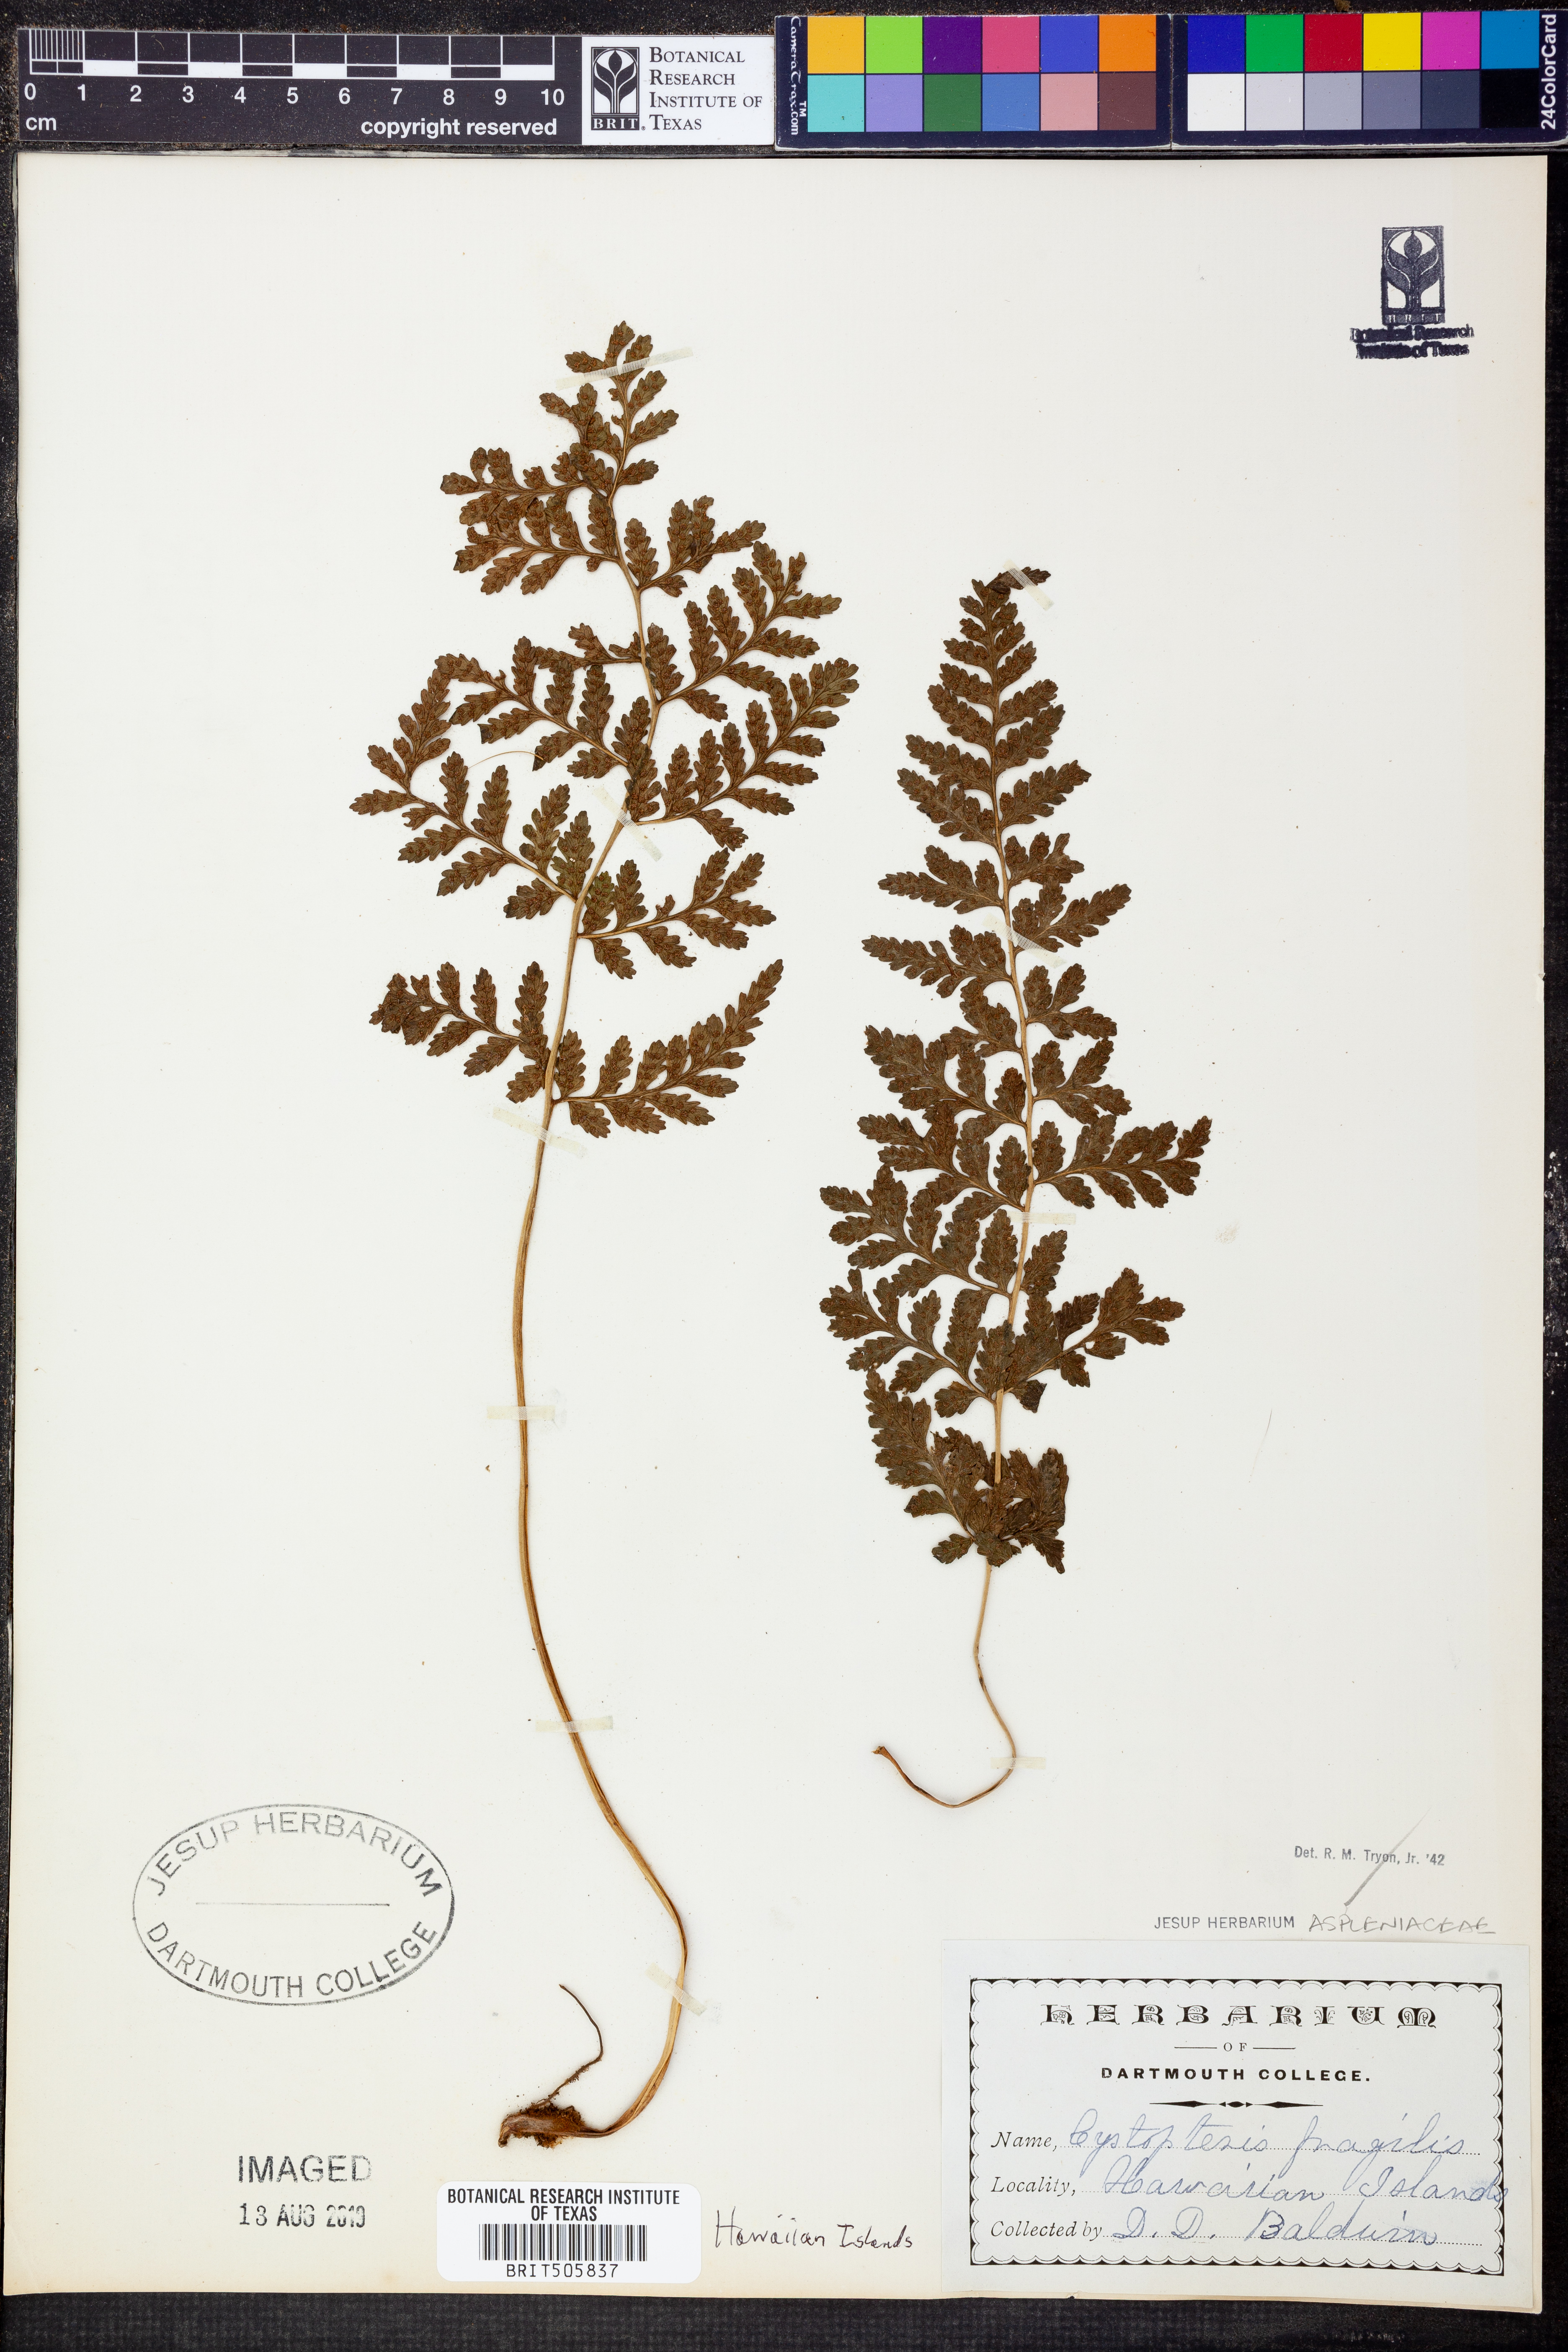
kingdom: Plantae
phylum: Tracheophyta
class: Polypodiopsida
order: Polypodiales
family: Cystopteridaceae
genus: Cystopteris
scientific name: Cystopteris fragilis
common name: Brittle bladder fern
